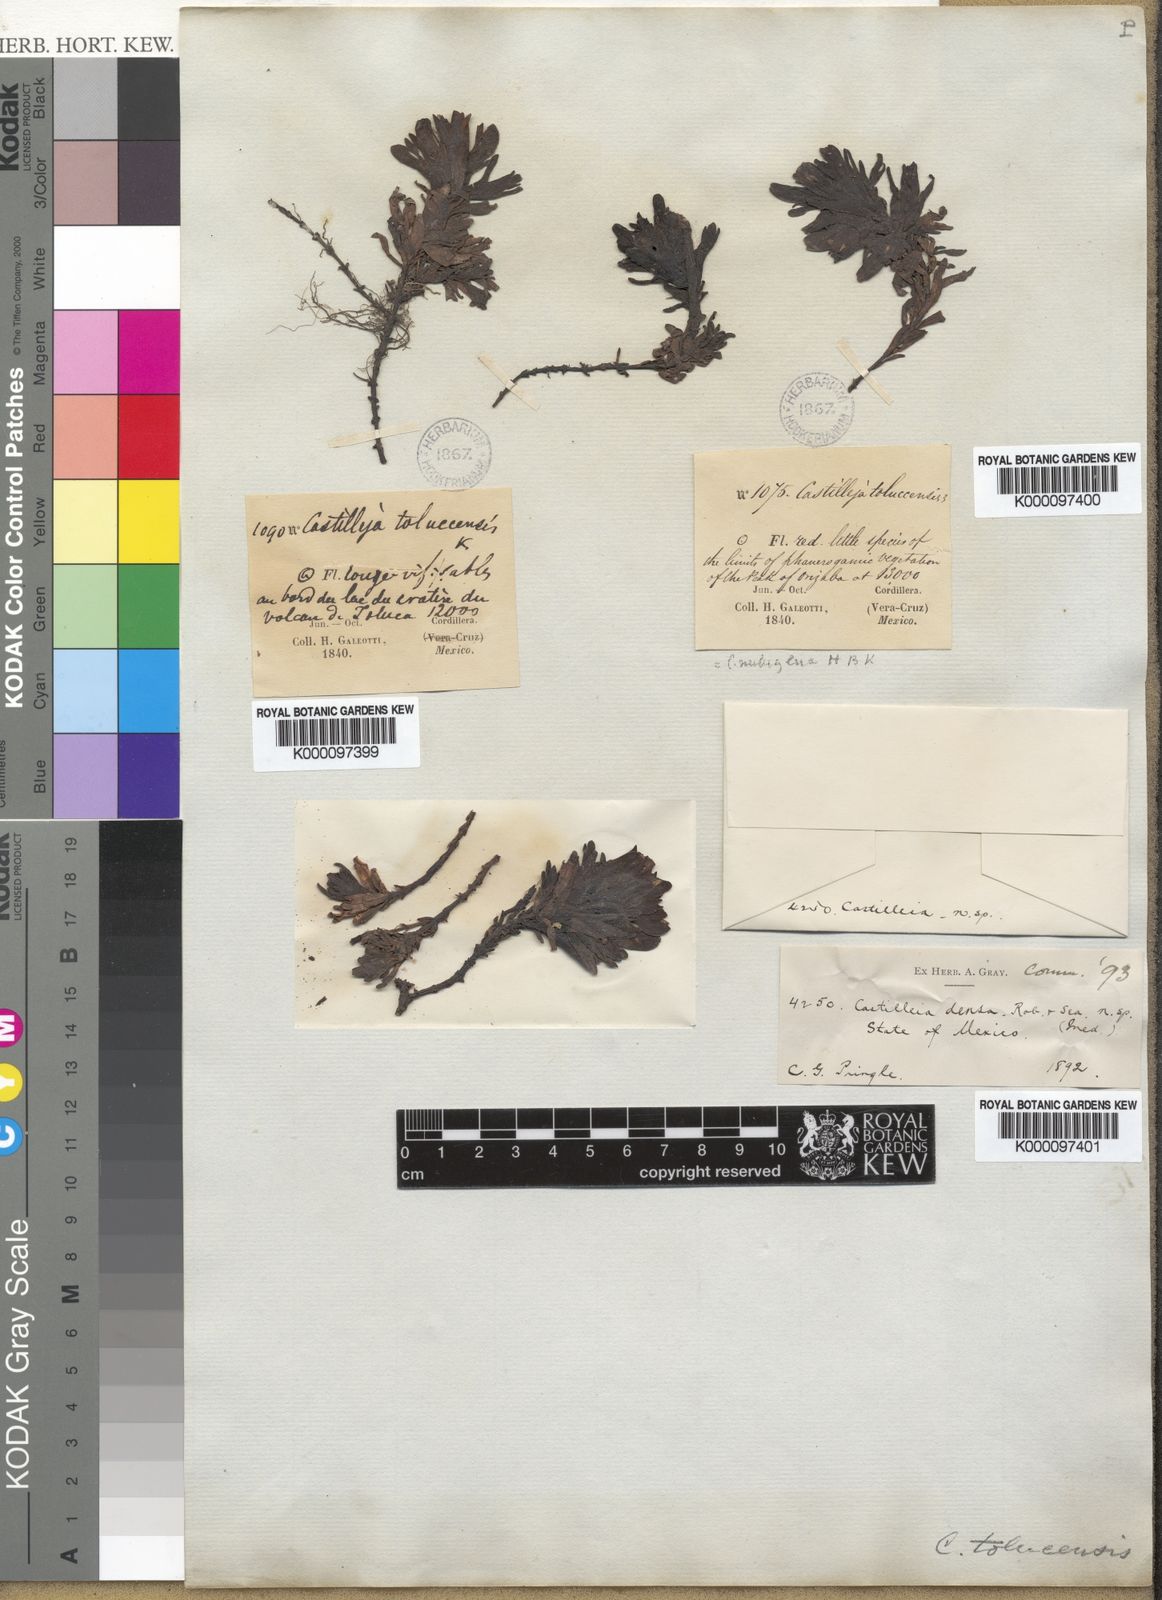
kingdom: Plantae
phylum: Tracheophyta
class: Magnoliopsida
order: Lamiales
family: Orobanchaceae
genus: Castilleja
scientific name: Castilleja tolucensis
